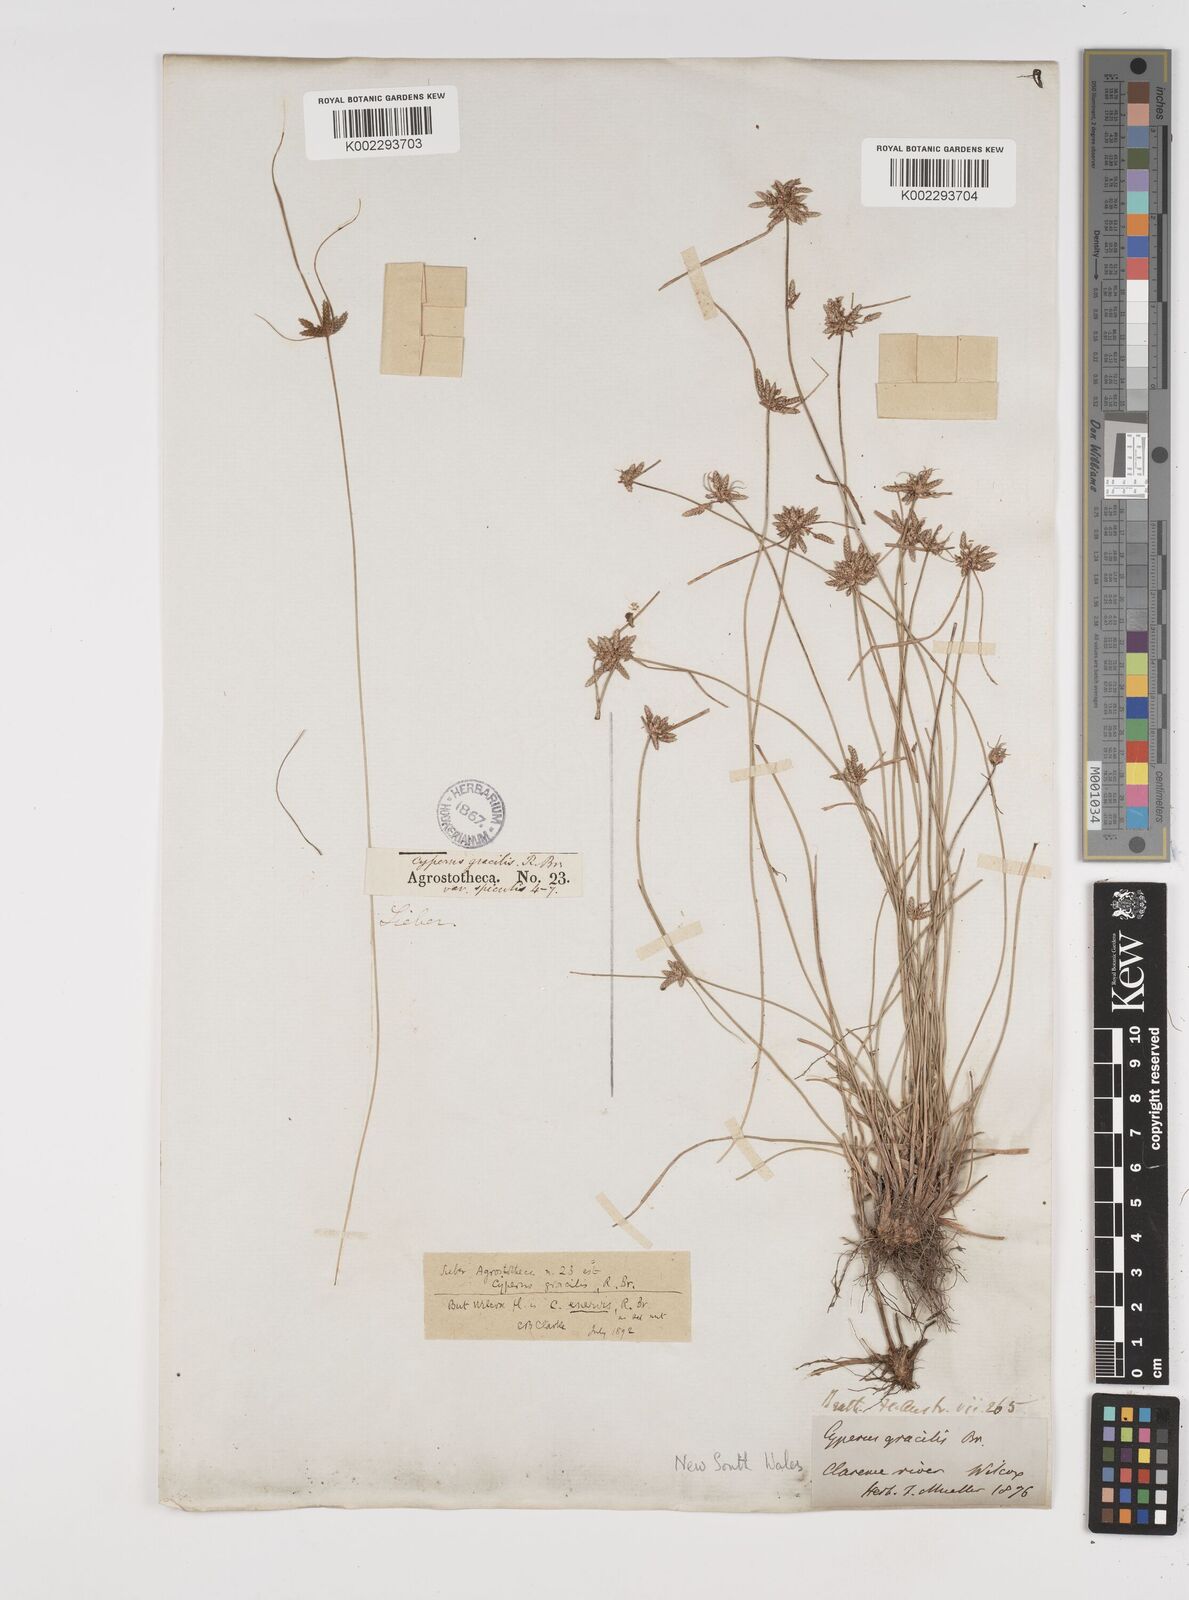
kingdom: Plantae
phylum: Tracheophyta
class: Liliopsida
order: Poales
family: Cyperaceae
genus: Cyperus
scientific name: Cyperus enervis
